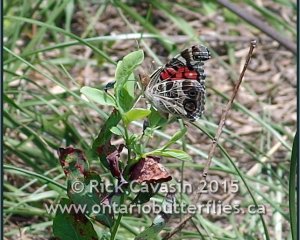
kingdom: Animalia
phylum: Arthropoda
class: Insecta
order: Lepidoptera
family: Nymphalidae
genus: Vanessa
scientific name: Vanessa virginiensis
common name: American Lady
